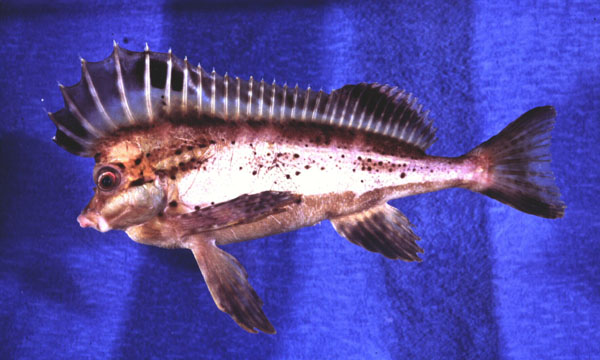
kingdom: Animalia
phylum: Chordata
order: Scorpaeniformes
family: Congiopodidae
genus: Congiopodus
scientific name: Congiopodus spinifer
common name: Spinenose horsefish
